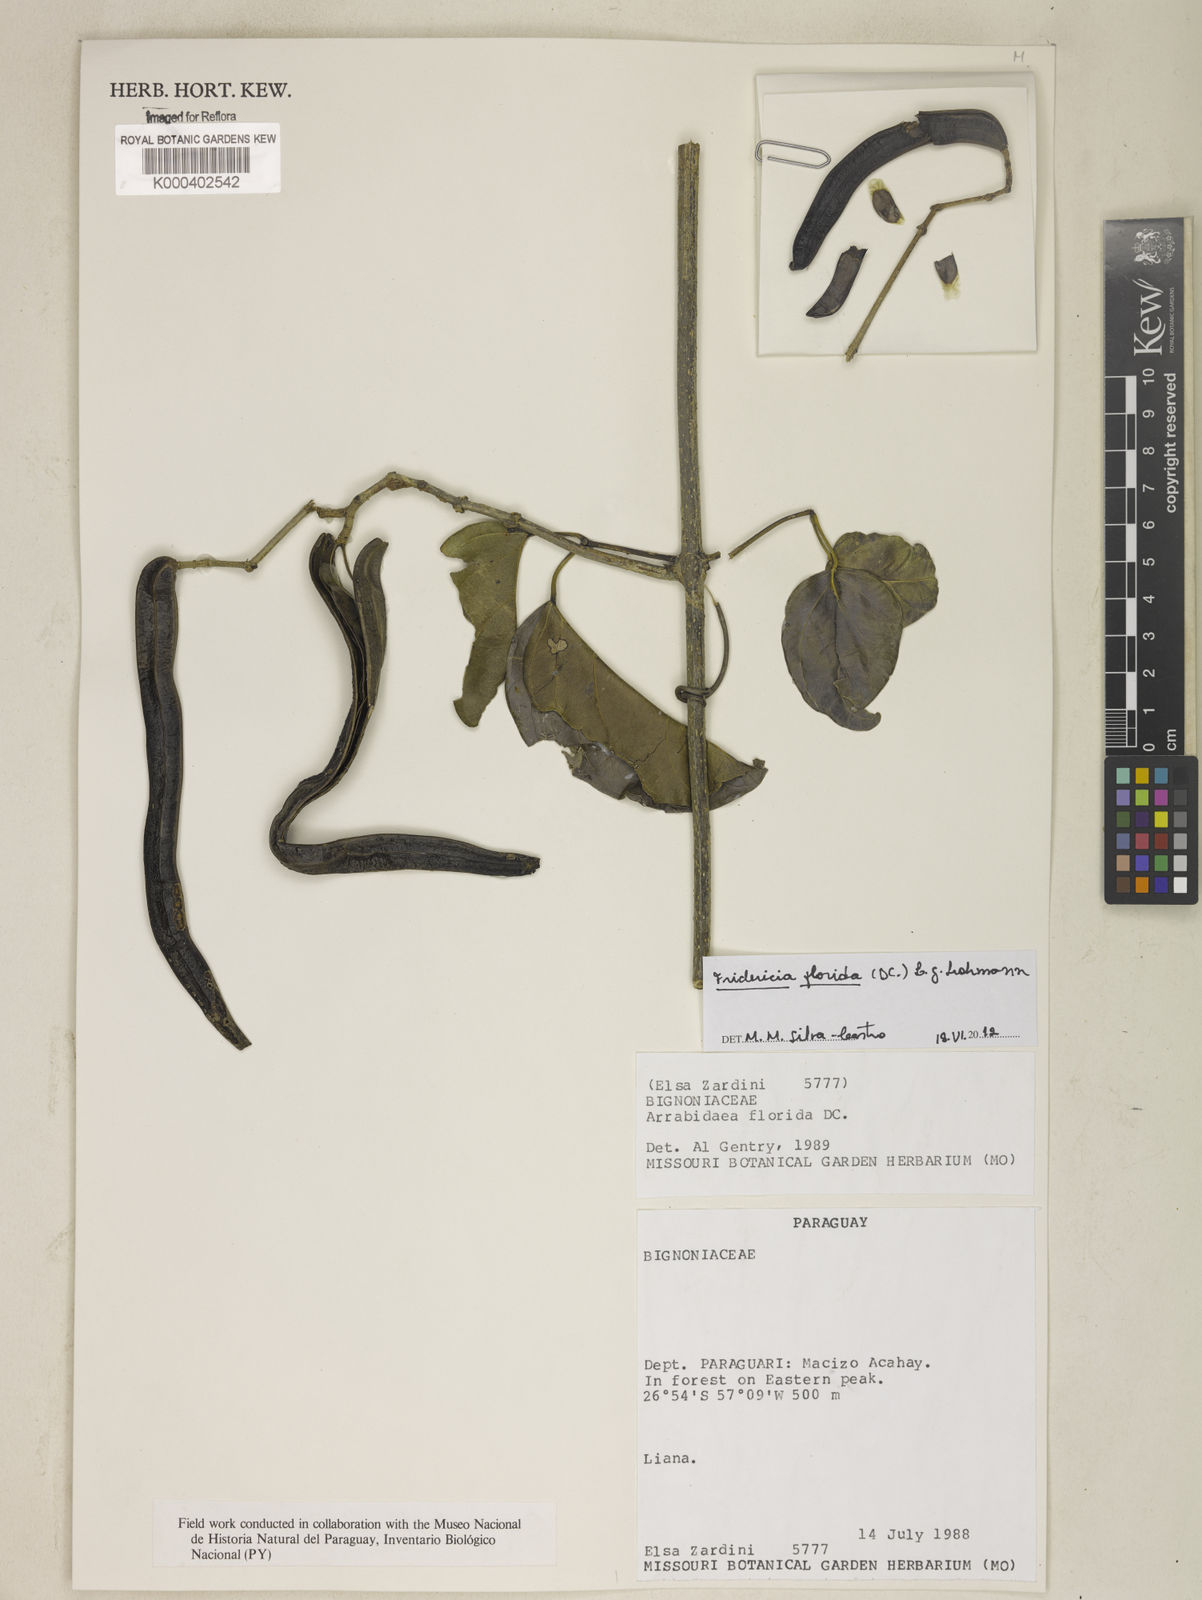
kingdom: Plantae
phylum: Tracheophyta
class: Magnoliopsida
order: Lamiales
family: Bignoniaceae
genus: Fridericia
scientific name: Fridericia florida
